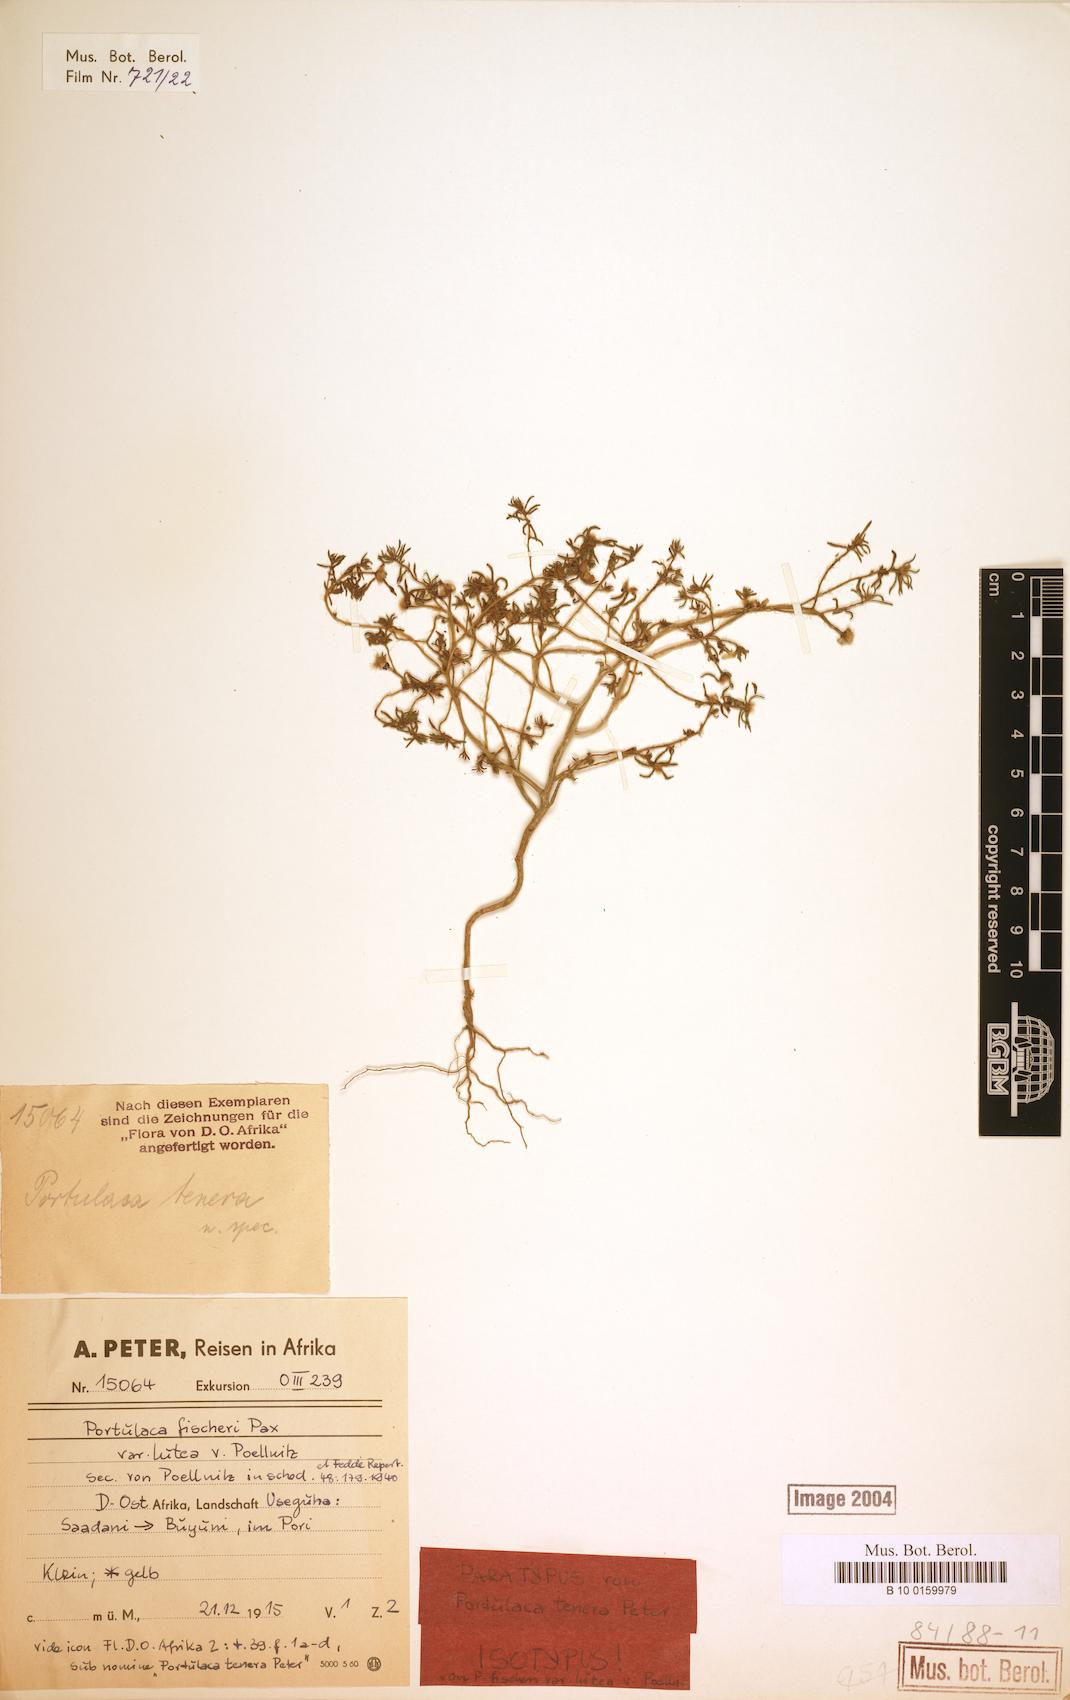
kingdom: Plantae
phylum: Tracheophyta
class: Magnoliopsida
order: Caryophyllales
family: Portulacaceae
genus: Portulaca
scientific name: Portulaca kermesina
